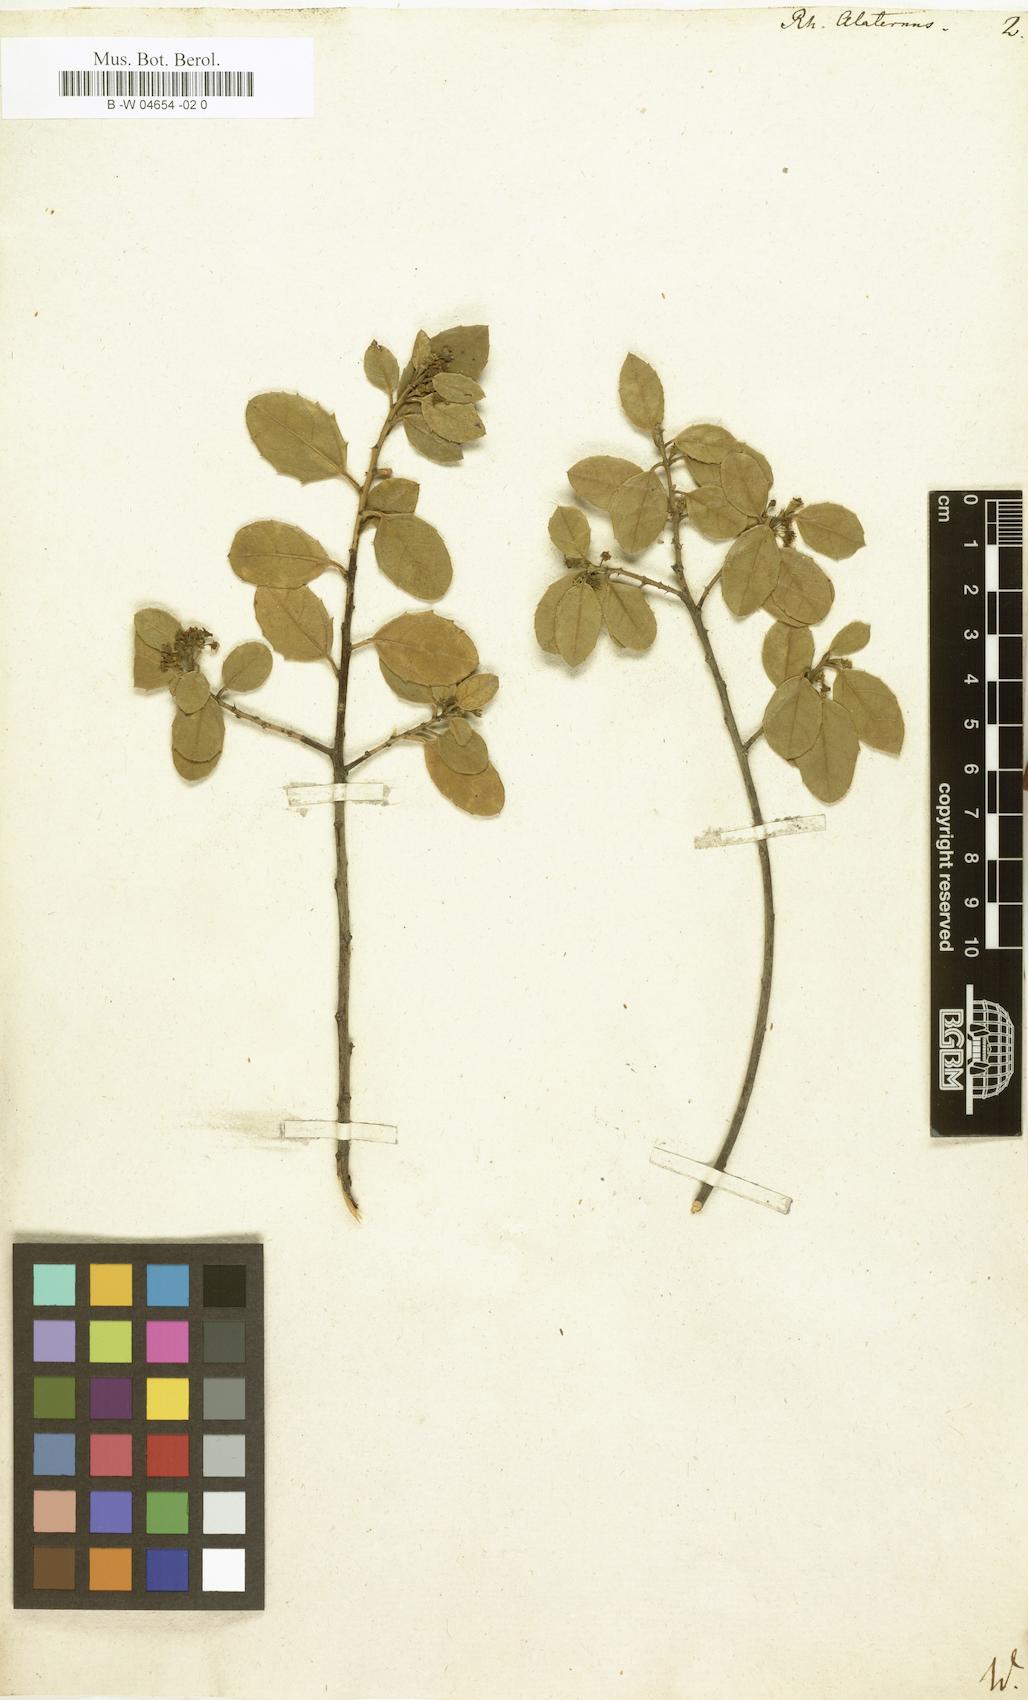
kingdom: Plantae
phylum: Tracheophyta
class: Magnoliopsida
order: Rosales
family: Rhamnaceae
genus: Rhamnus
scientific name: Rhamnus alaternus
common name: Mediterranean buckthorn
